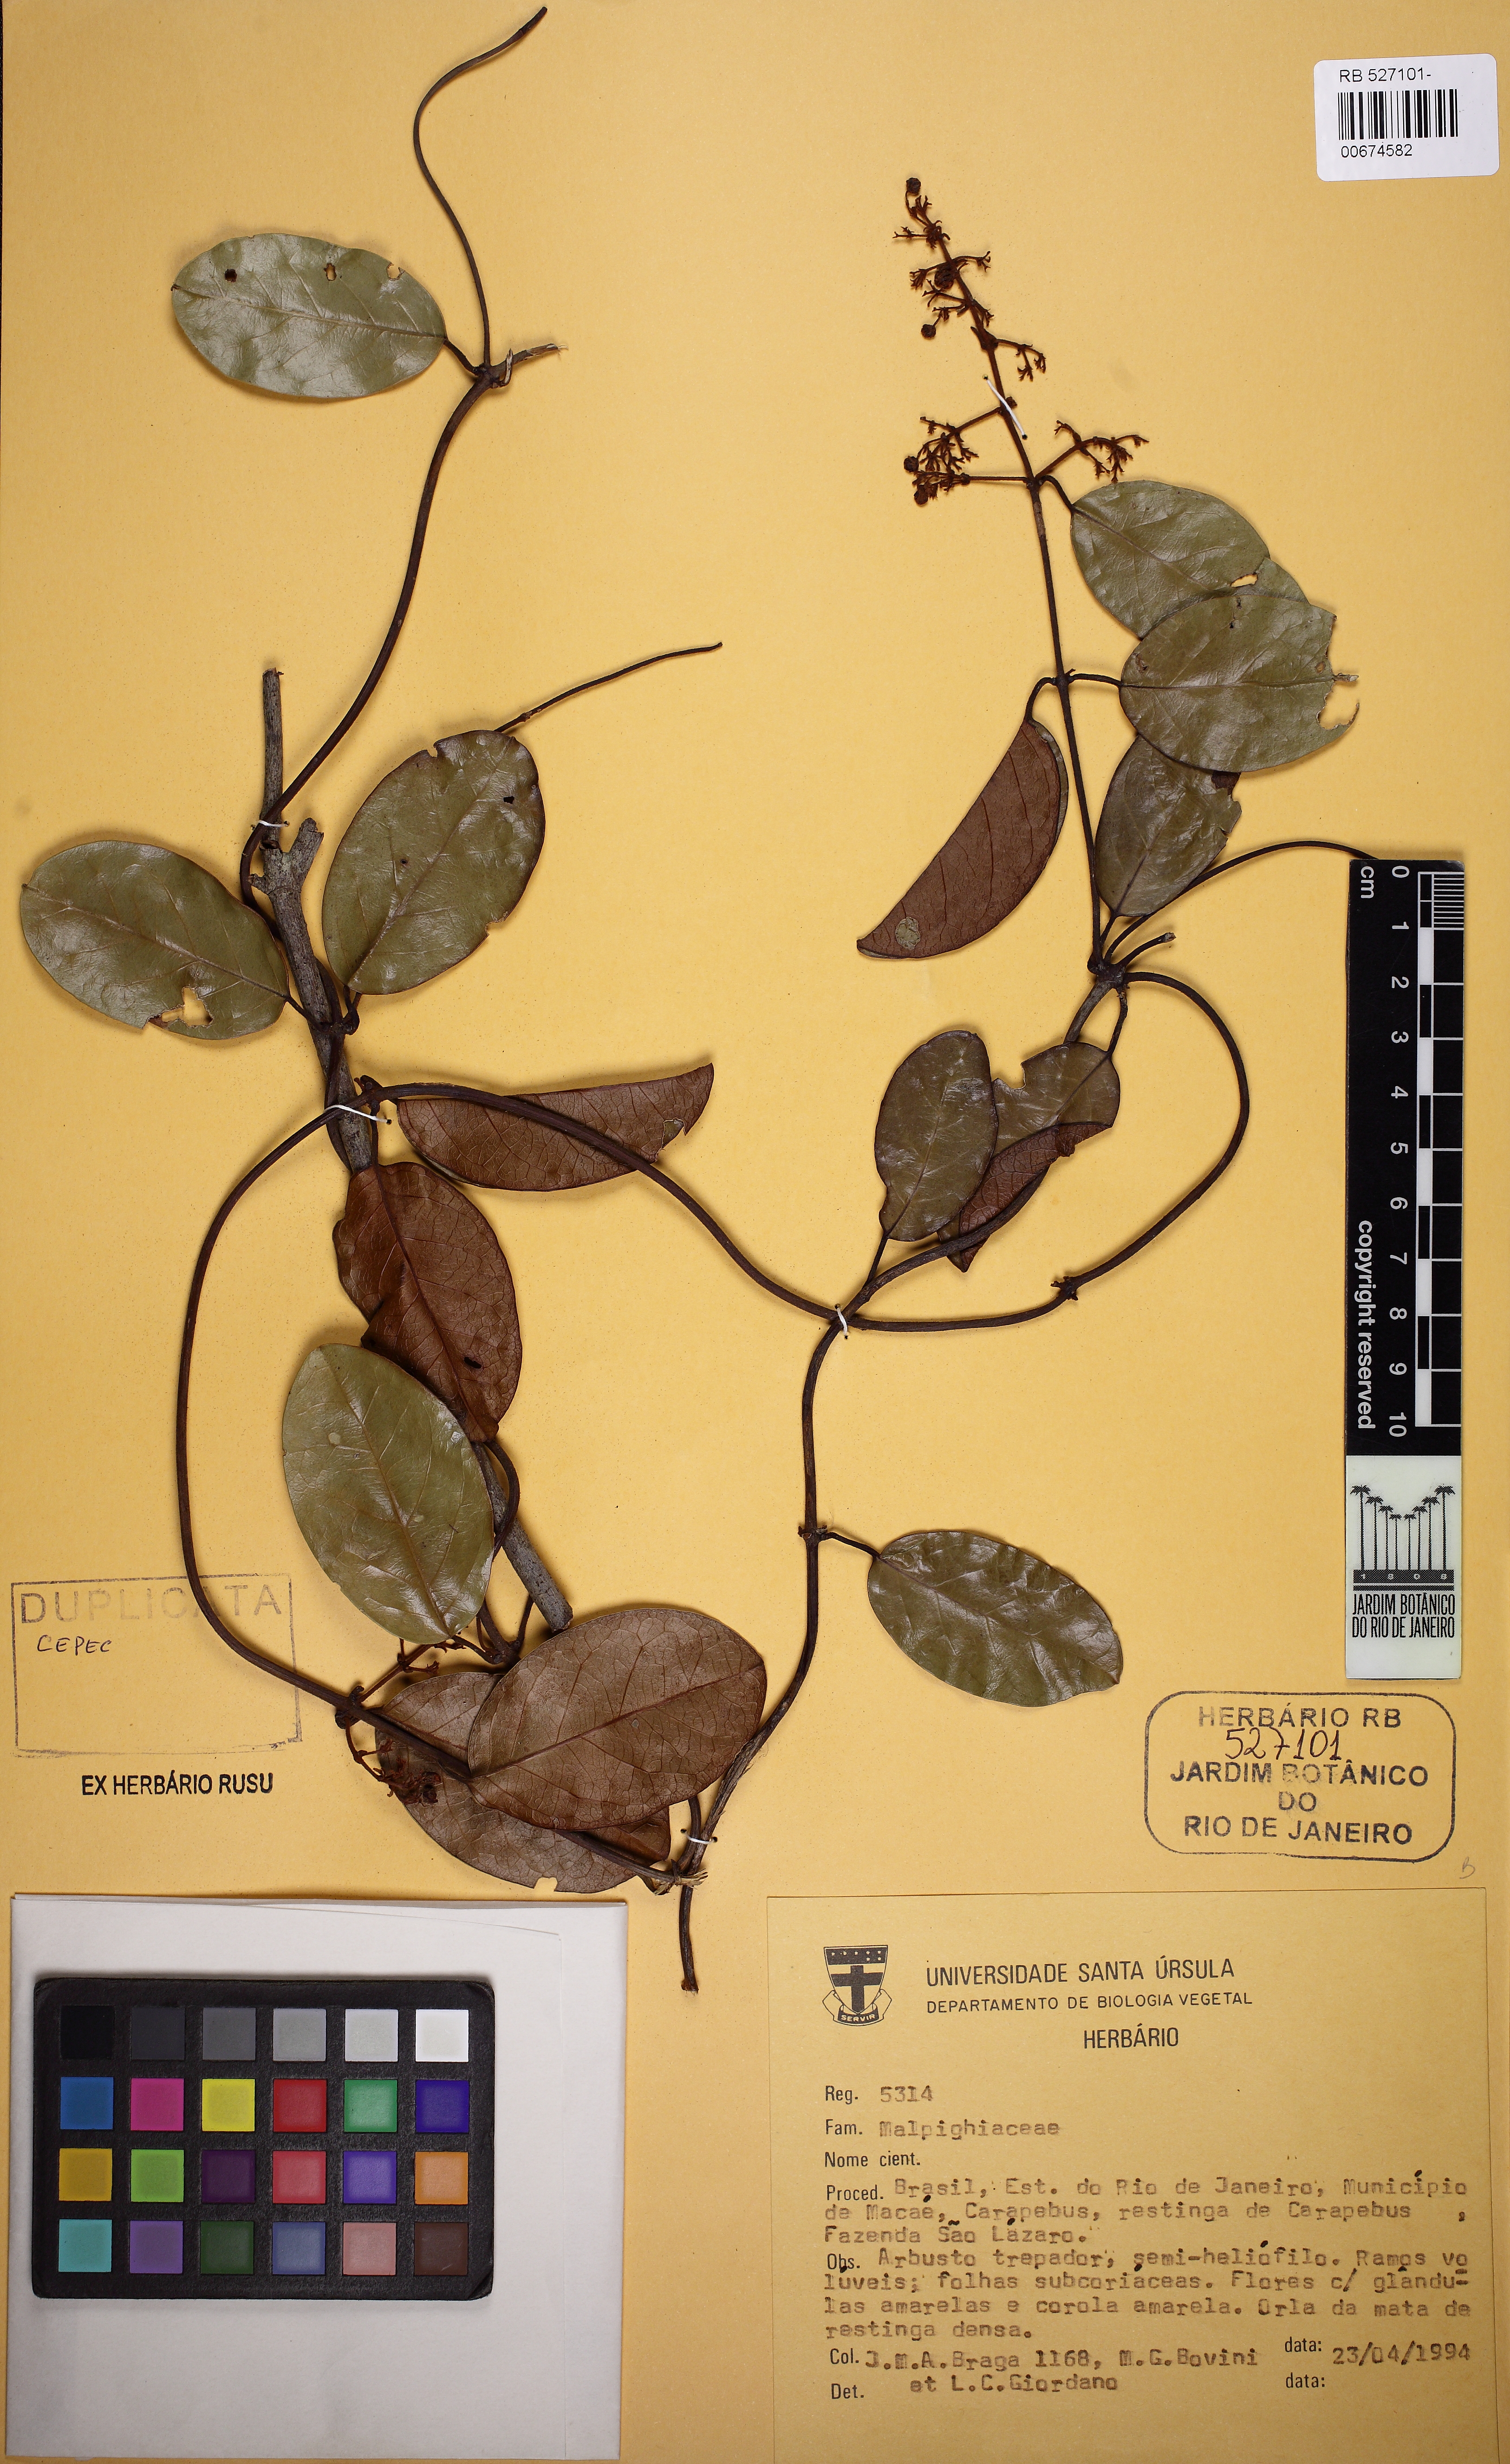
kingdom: Plantae
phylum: Tracheophyta
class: Magnoliopsida
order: Malpighiales
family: Malpighiaceae
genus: Heteropterys
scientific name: Heteropterys
